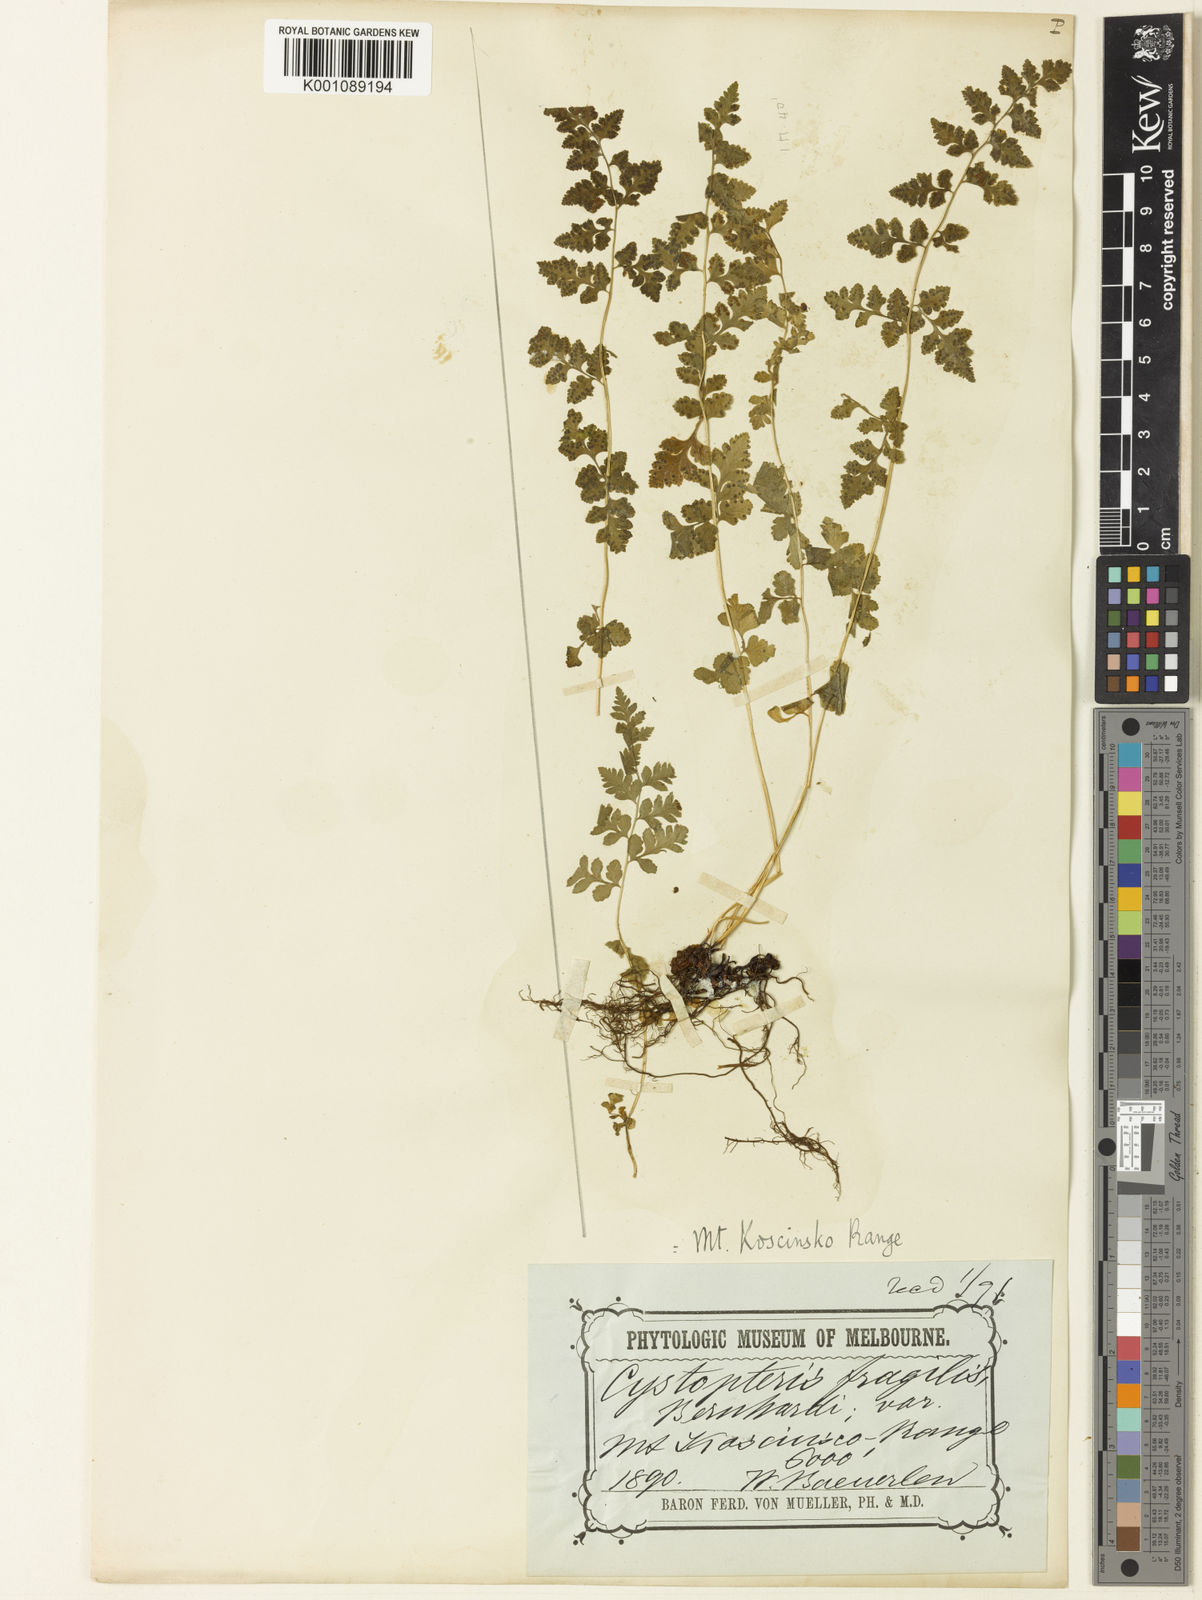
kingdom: Plantae
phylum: Tracheophyta
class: Polypodiopsida
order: Polypodiales
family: Cystopteridaceae
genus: Cystopteris
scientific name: Cystopteris tasmanica
